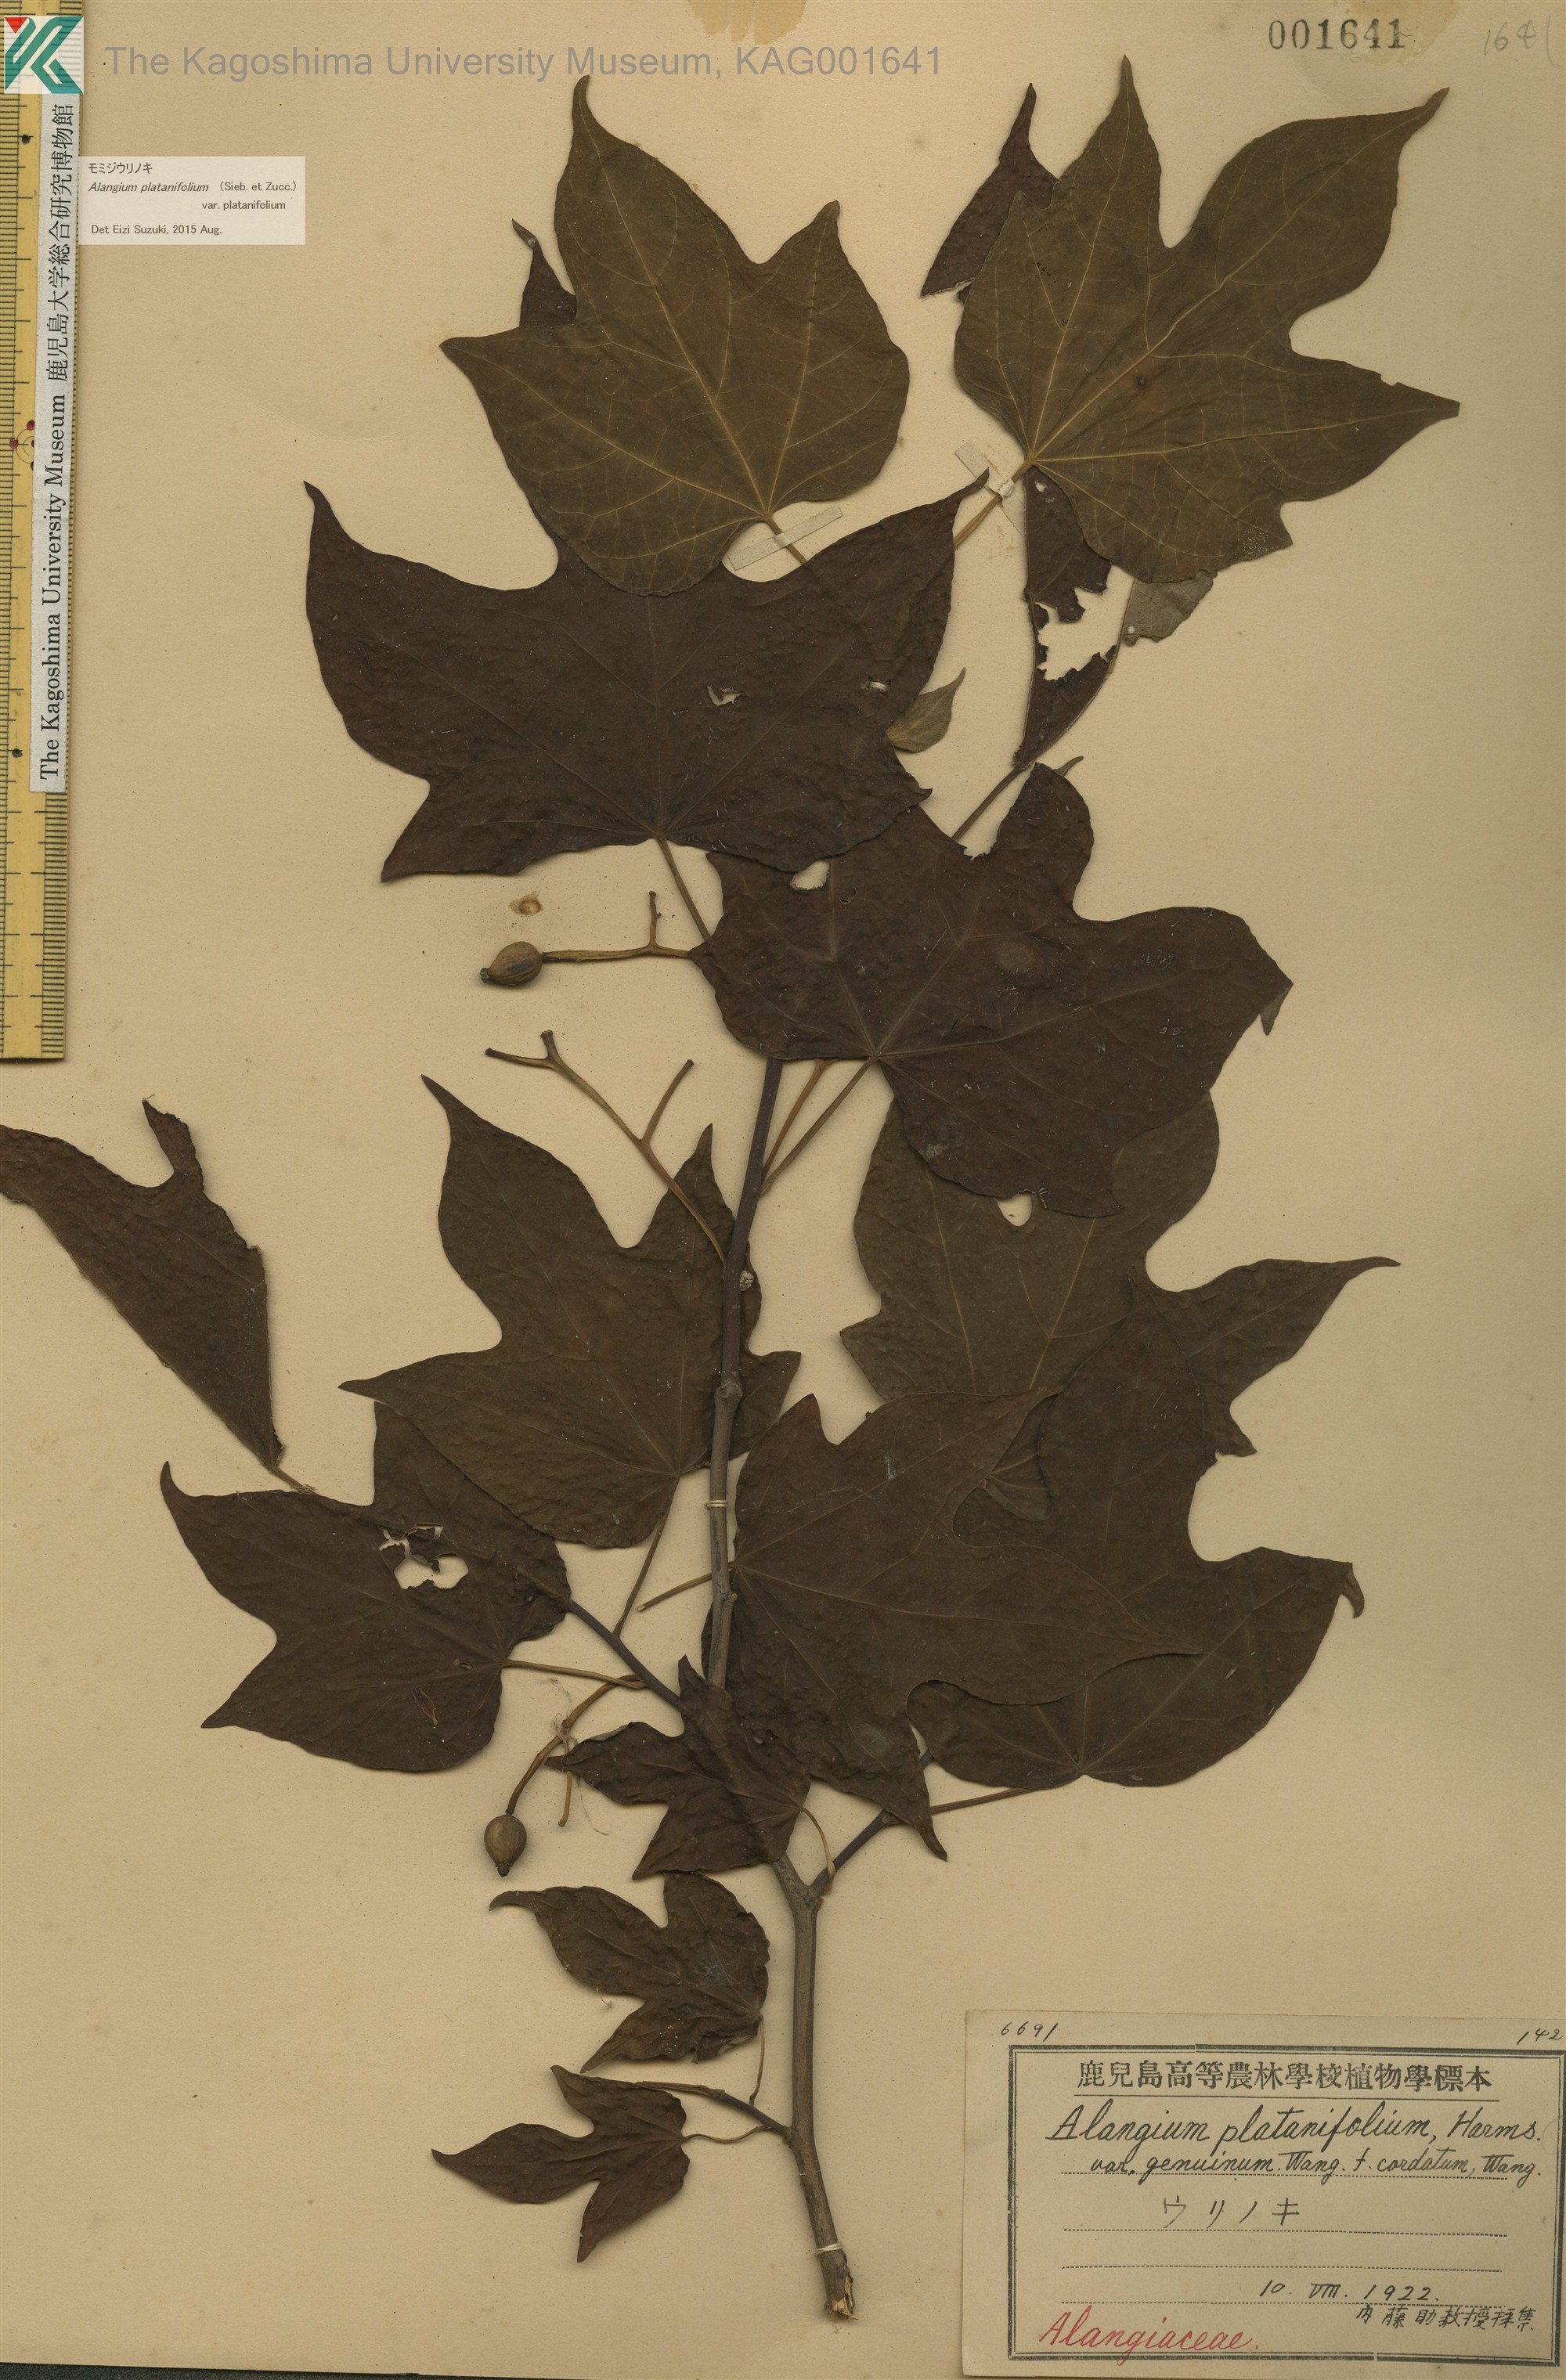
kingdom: Plantae
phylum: Tracheophyta
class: Magnoliopsida
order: Cornales
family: Cornaceae
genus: Alangium
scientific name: Alangium platanifolium
